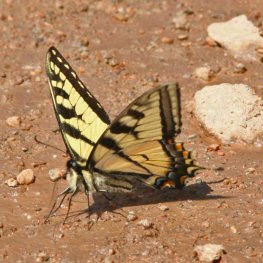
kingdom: Animalia
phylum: Arthropoda
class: Insecta
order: Lepidoptera
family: Papilionidae
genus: Pterourus
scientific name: Pterourus canadensis
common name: Canadian Tiger Swallowtail
